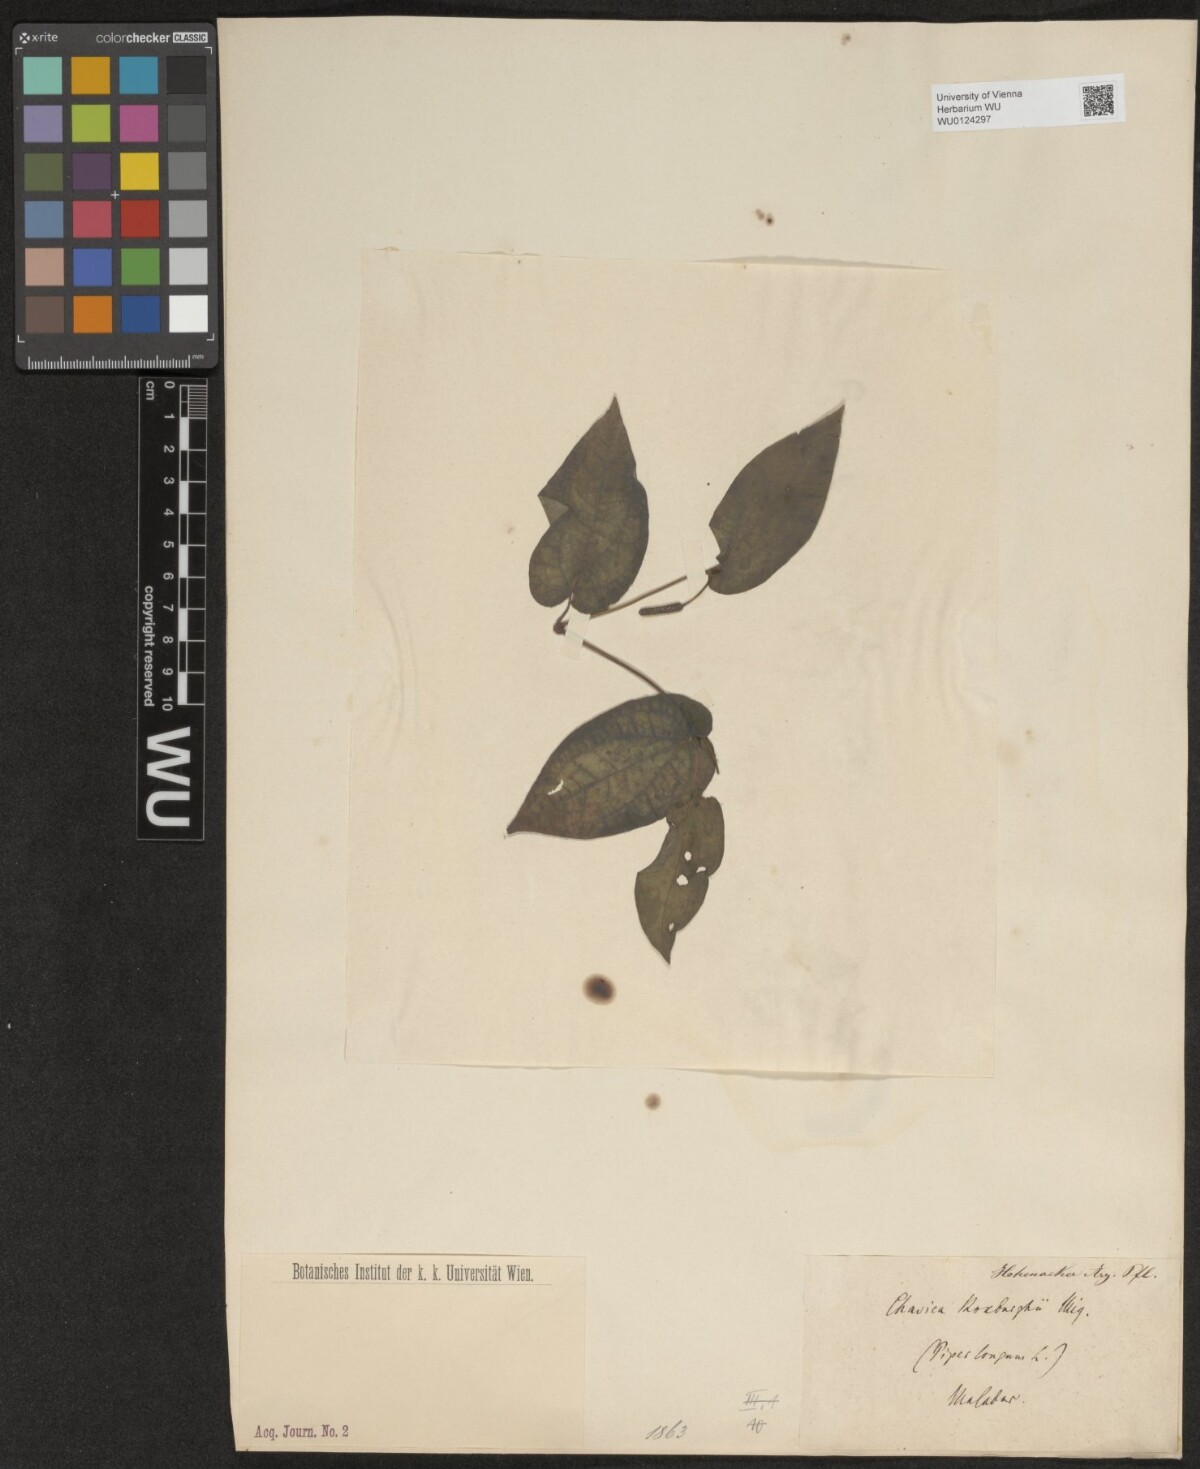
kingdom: Plantae
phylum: Tracheophyta
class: Magnoliopsida
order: Piperales
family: Piperaceae
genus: Piper
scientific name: Piper longum
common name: Long pepper
